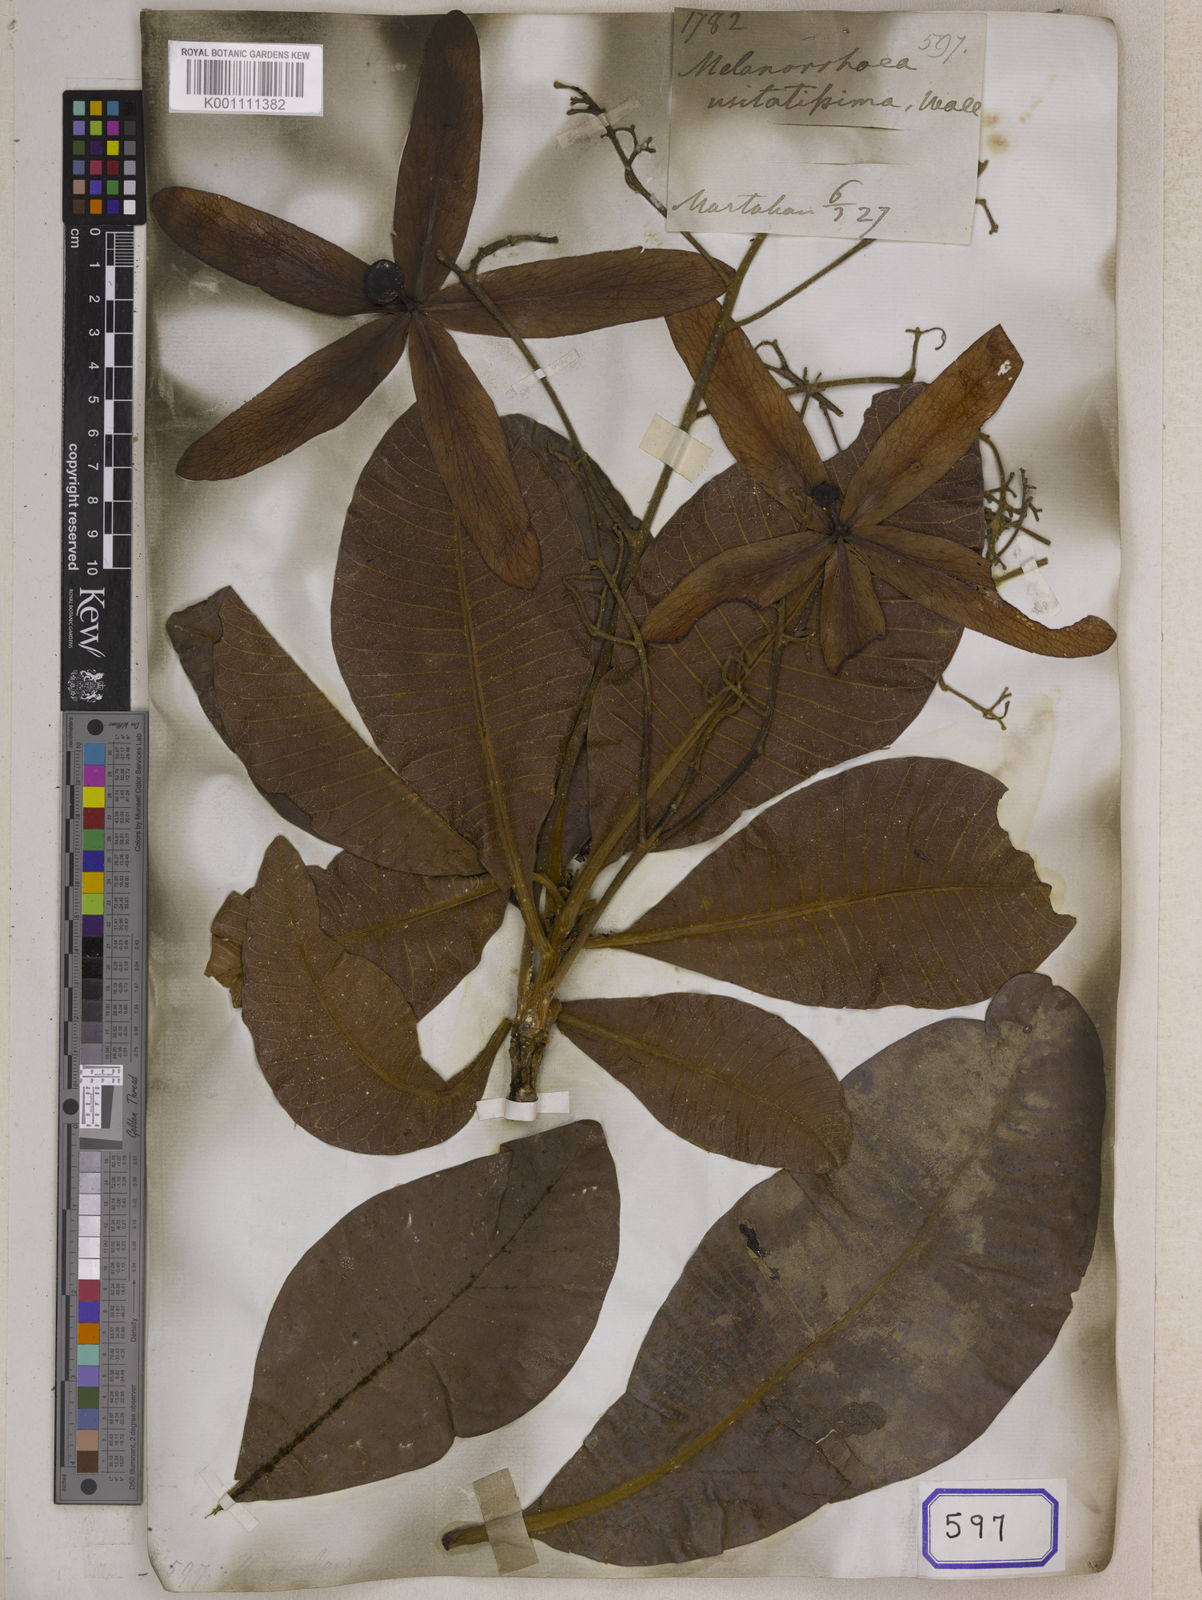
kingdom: Plantae
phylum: Tracheophyta
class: Magnoliopsida
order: Sapindales
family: Anacardiaceae
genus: Gluta
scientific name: Gluta
